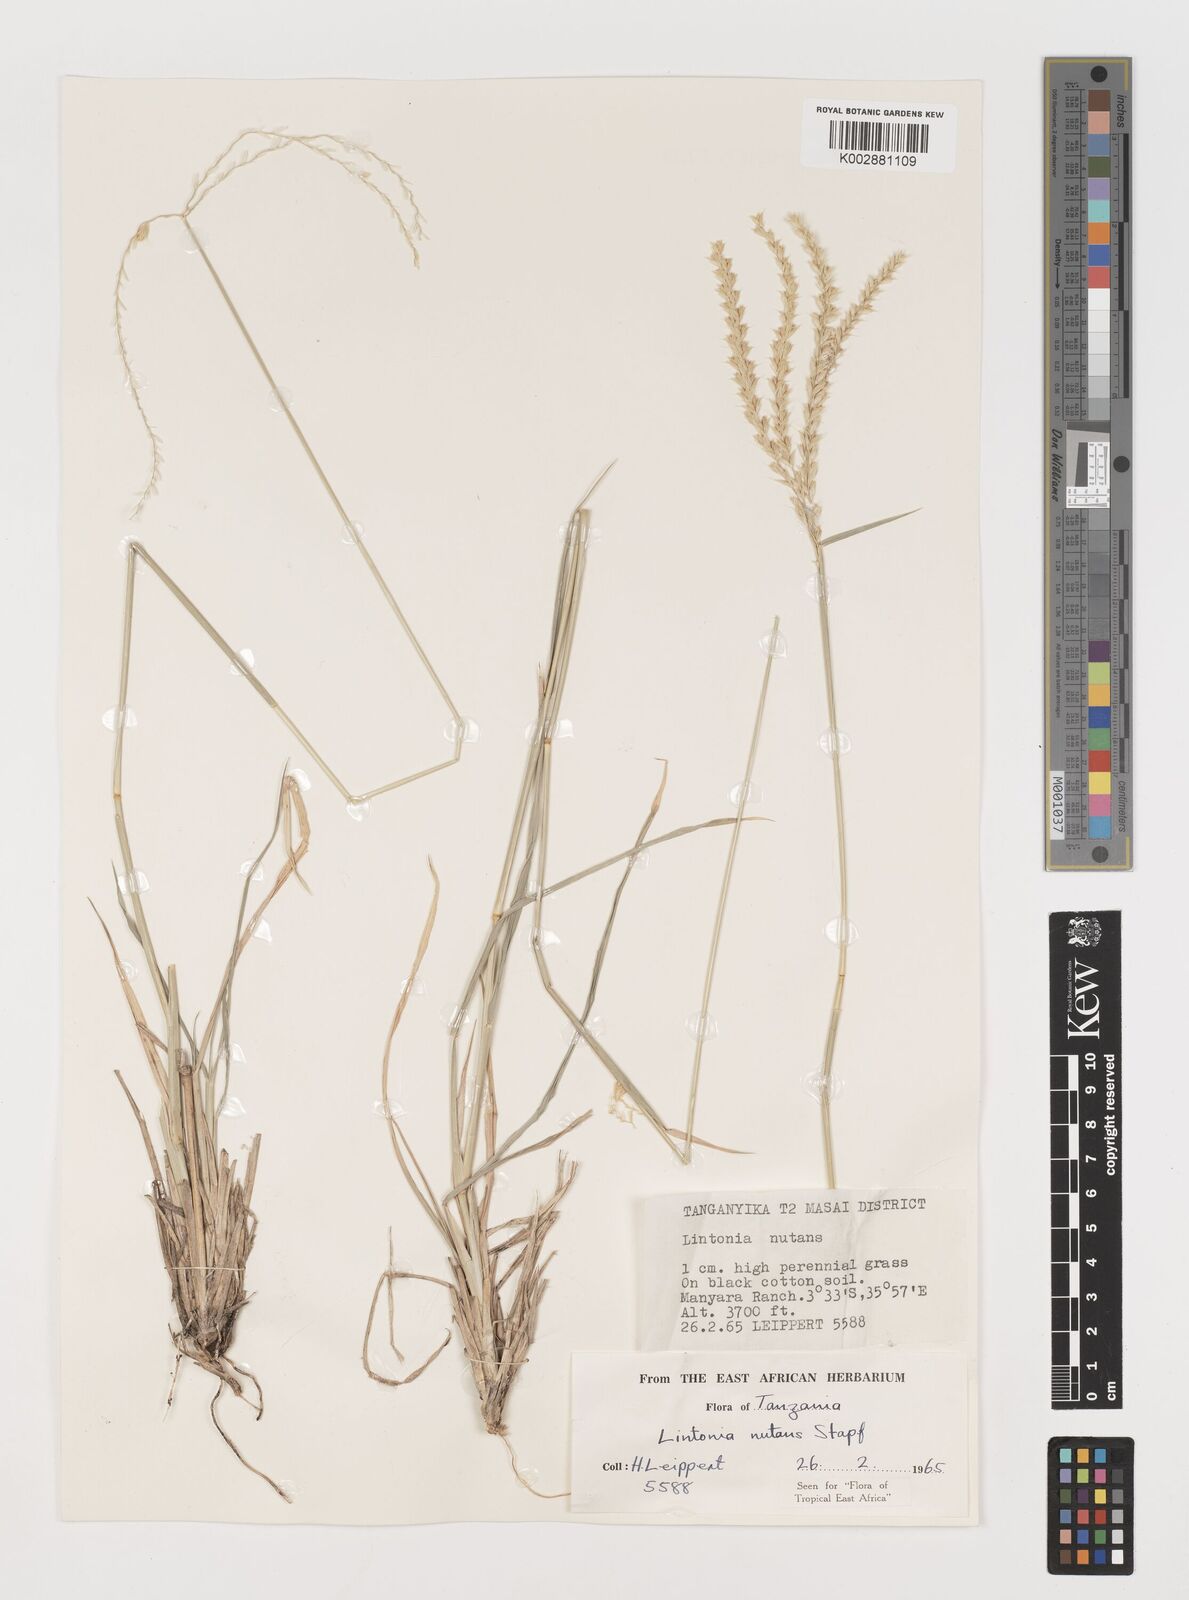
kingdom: Plantae
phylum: Tracheophyta
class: Liliopsida
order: Poales
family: Poaceae
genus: Chloris
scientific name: Chloris nutans
